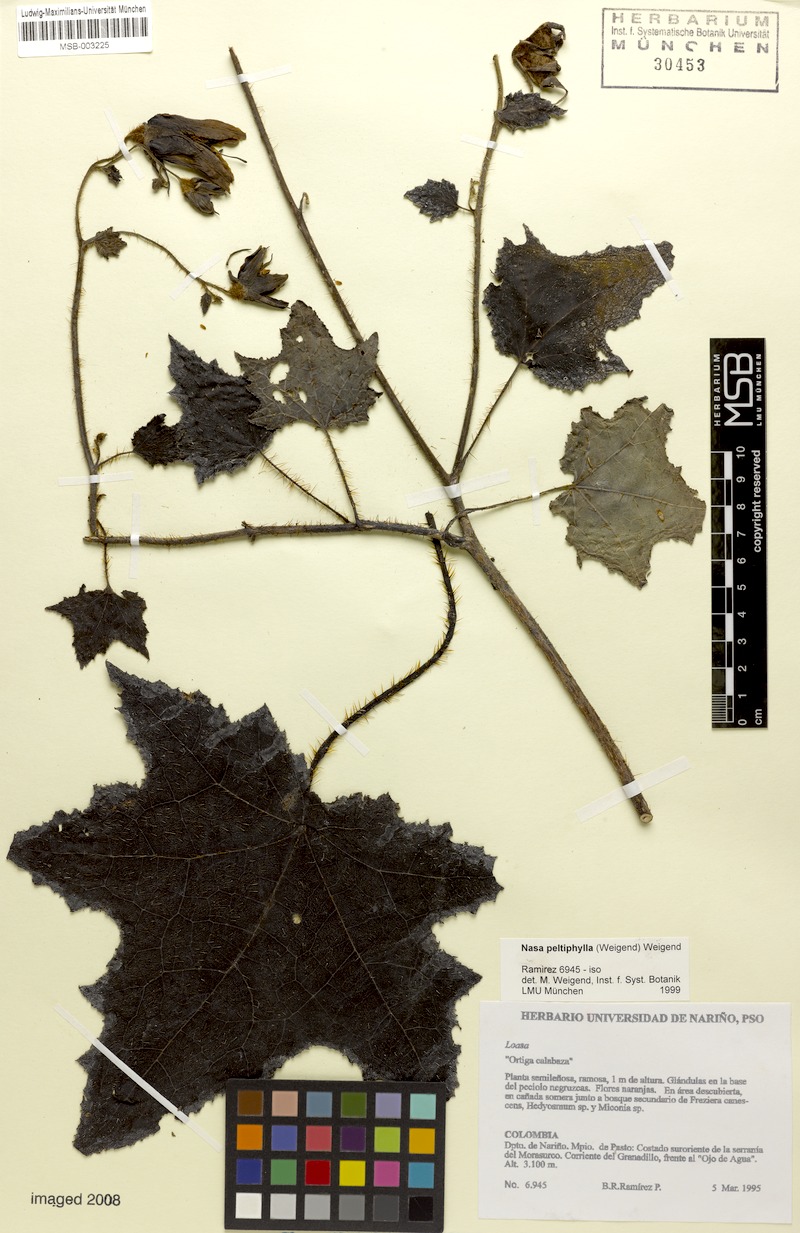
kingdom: Plantae
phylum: Tracheophyta
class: Magnoliopsida
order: Cornales
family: Loasaceae
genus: Nasa
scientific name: Nasa peltiphylla
